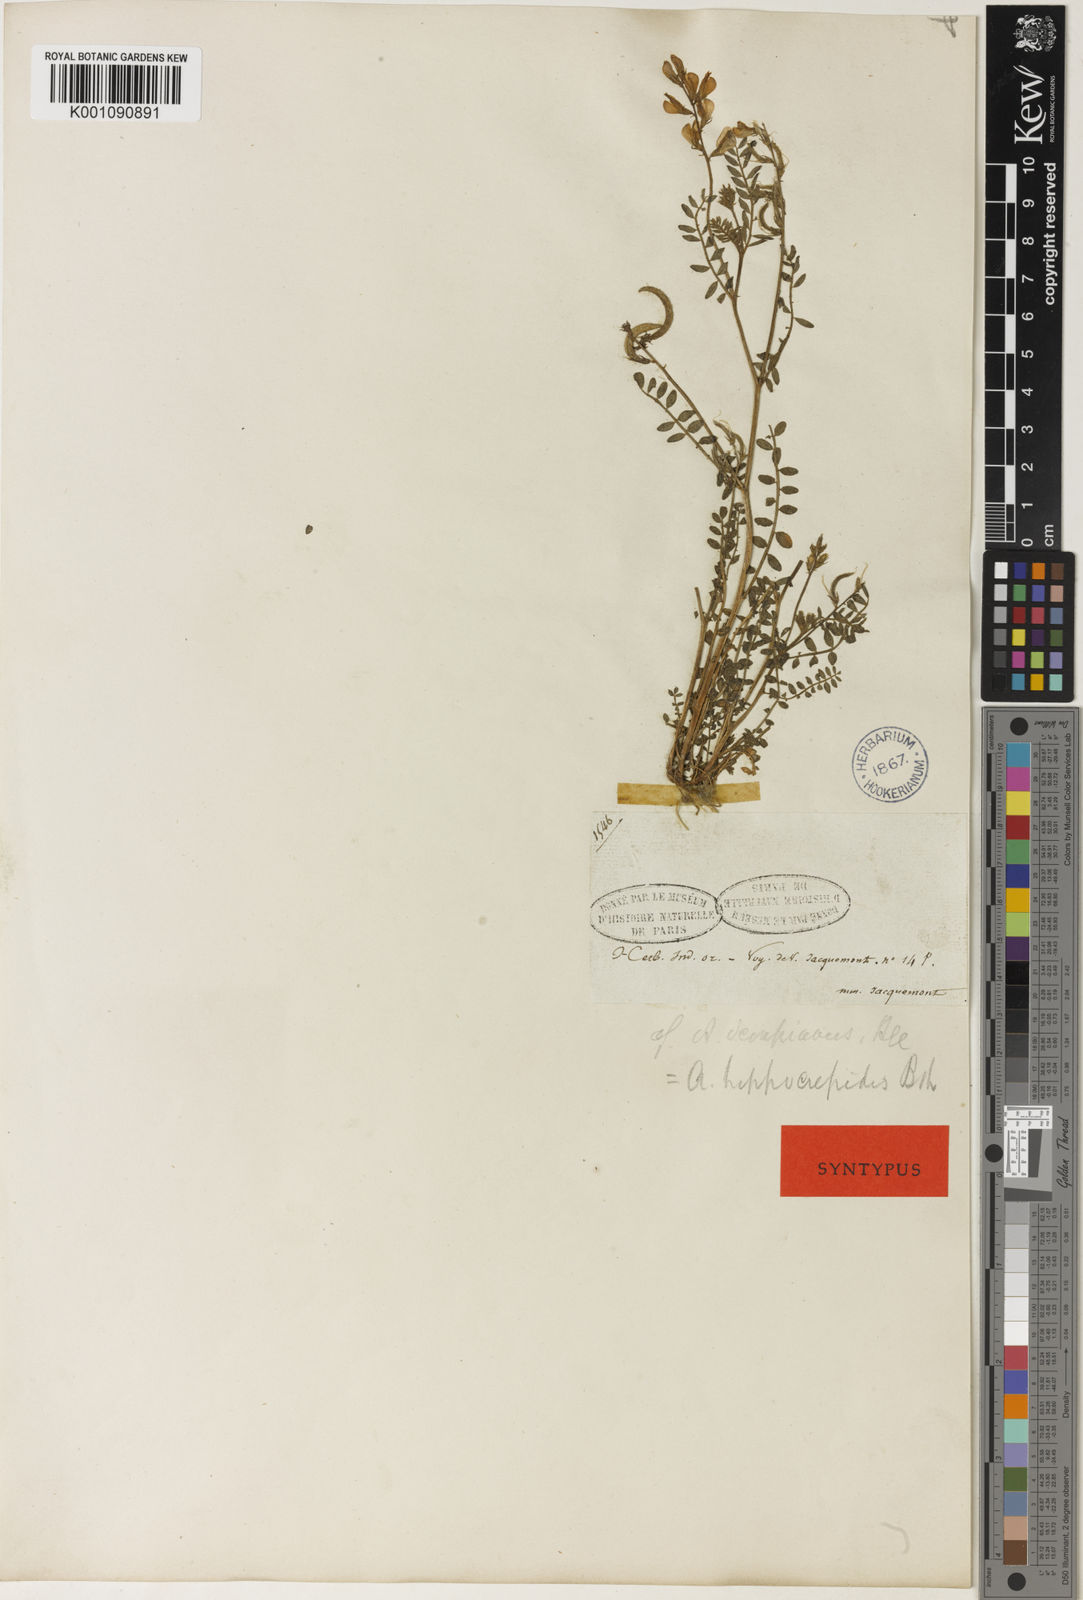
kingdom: Plantae
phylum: Tracheophyta
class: Magnoliopsida
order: Fabales
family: Fabaceae
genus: Astragalus
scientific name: Astragalus
